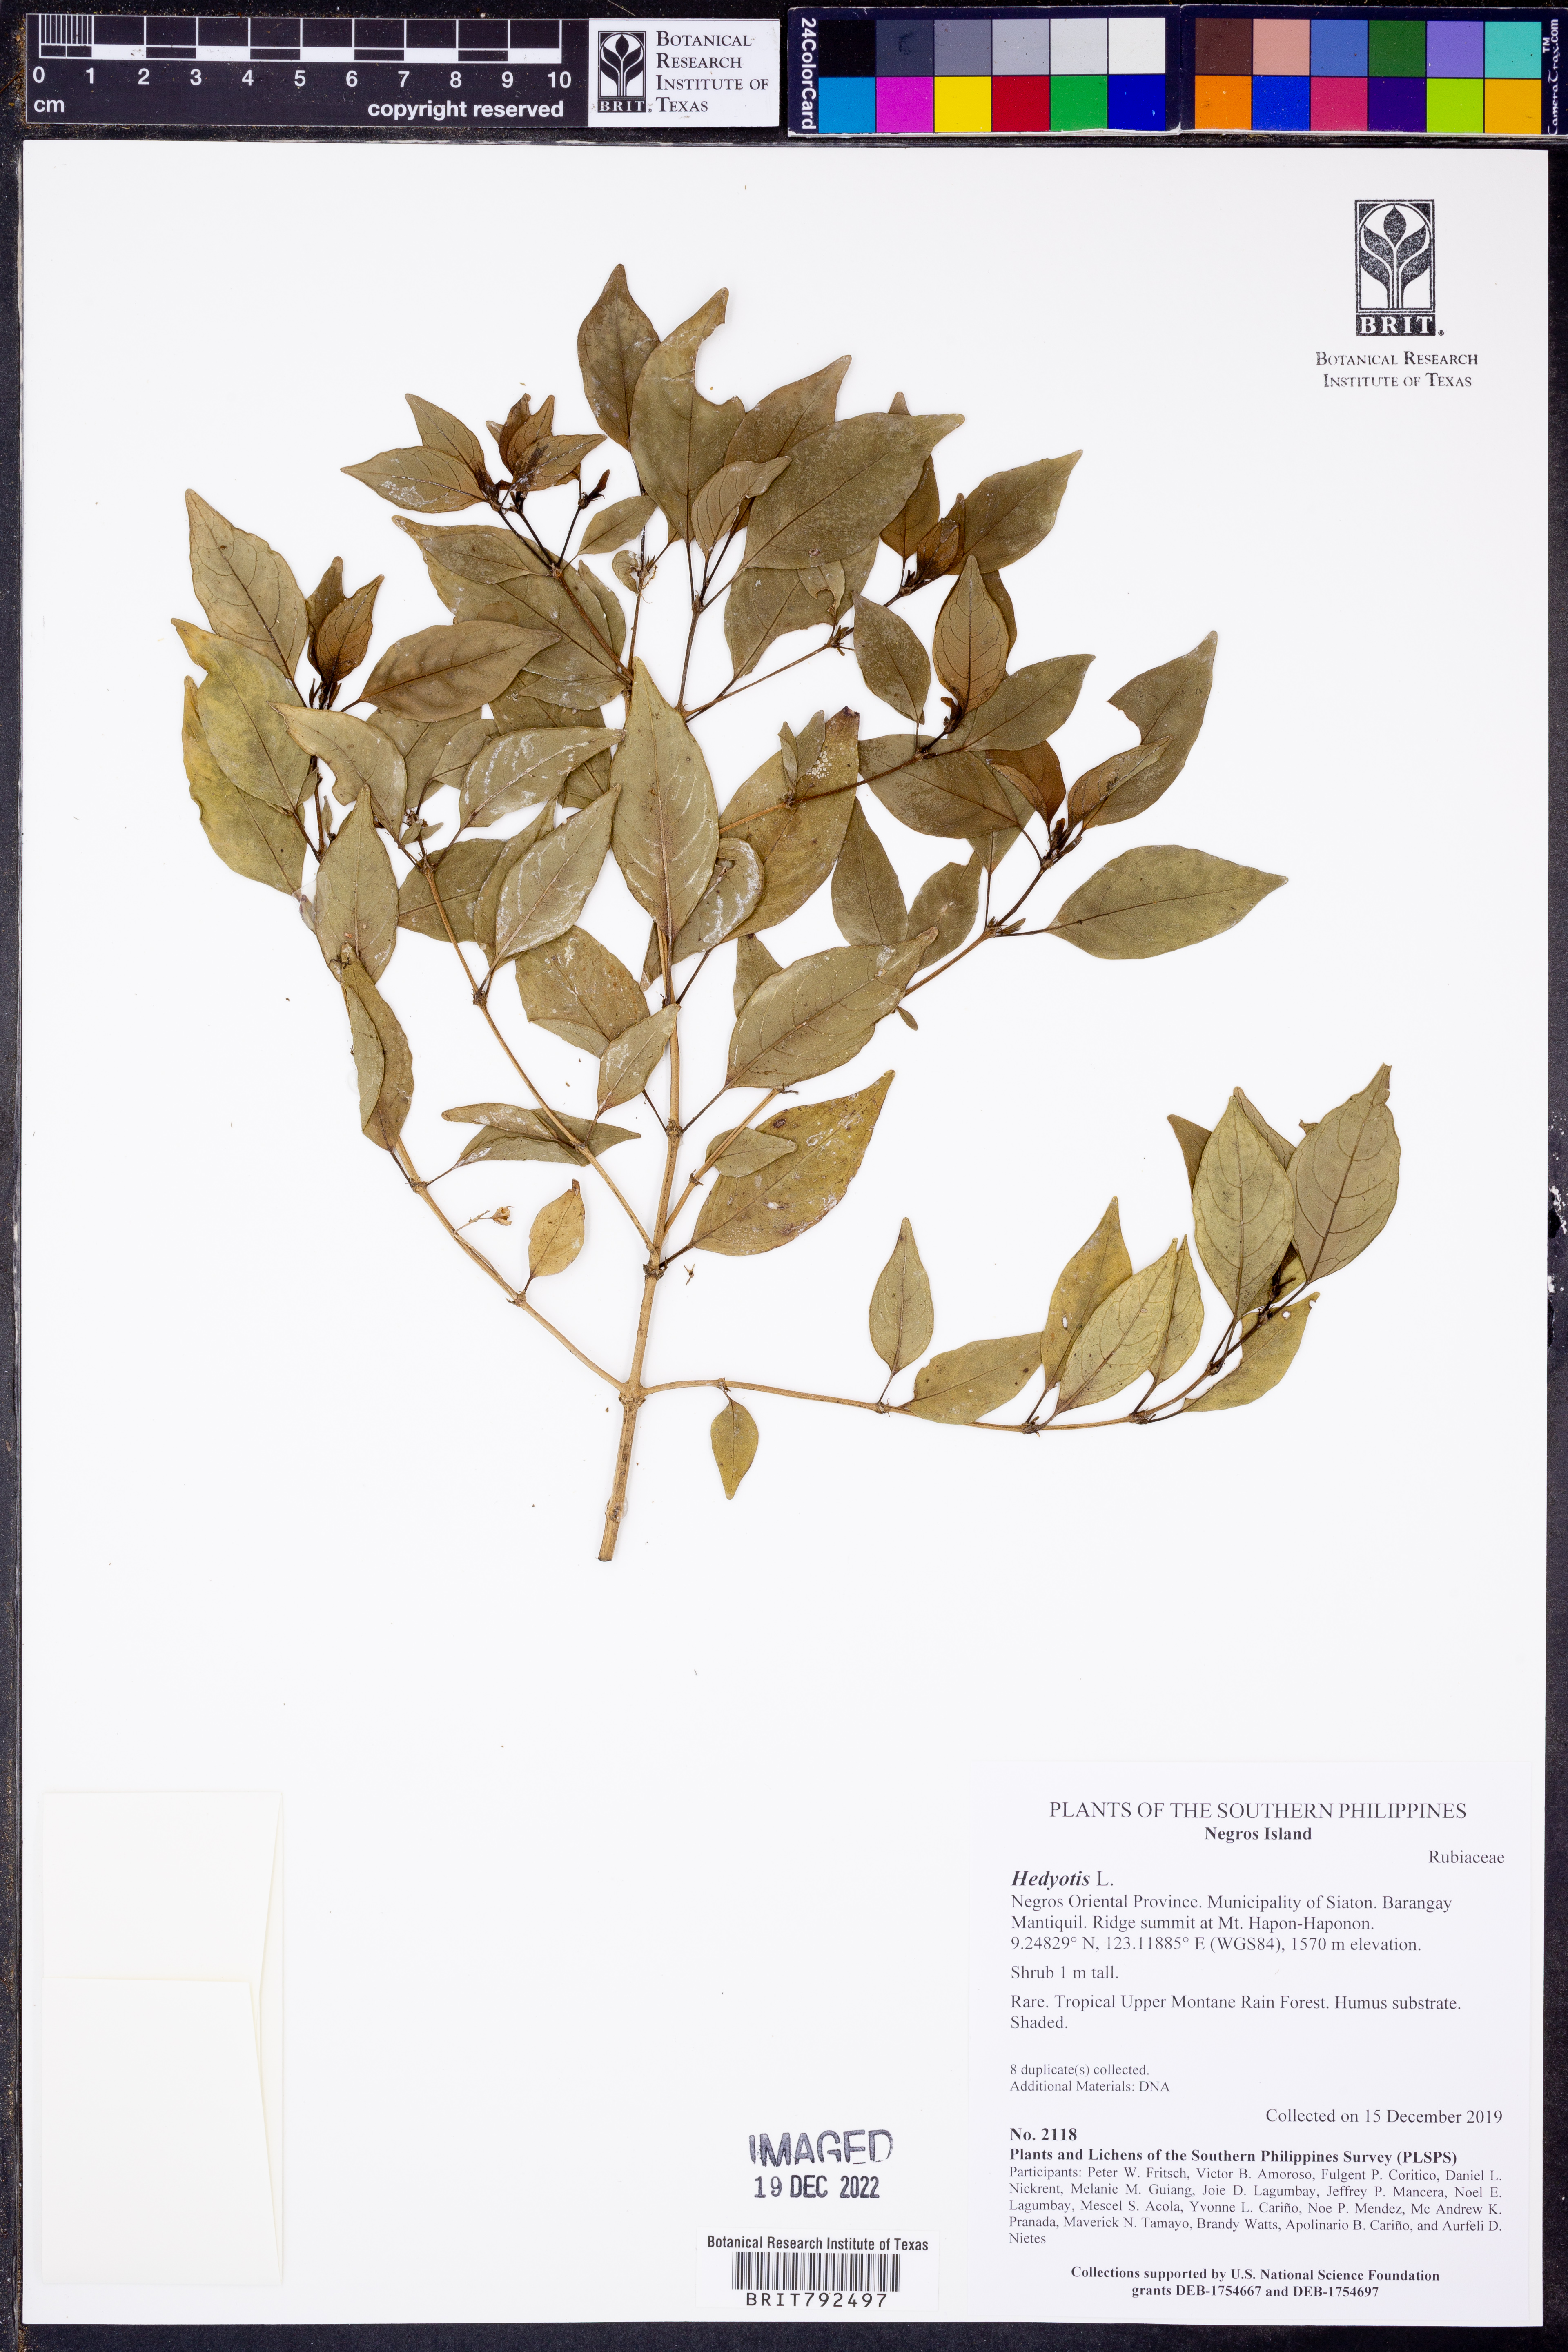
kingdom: Plantae
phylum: Tracheophyta
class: Magnoliopsida
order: Gentianales
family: Rubiaceae
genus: Hedyotis
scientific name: Hedyotis
